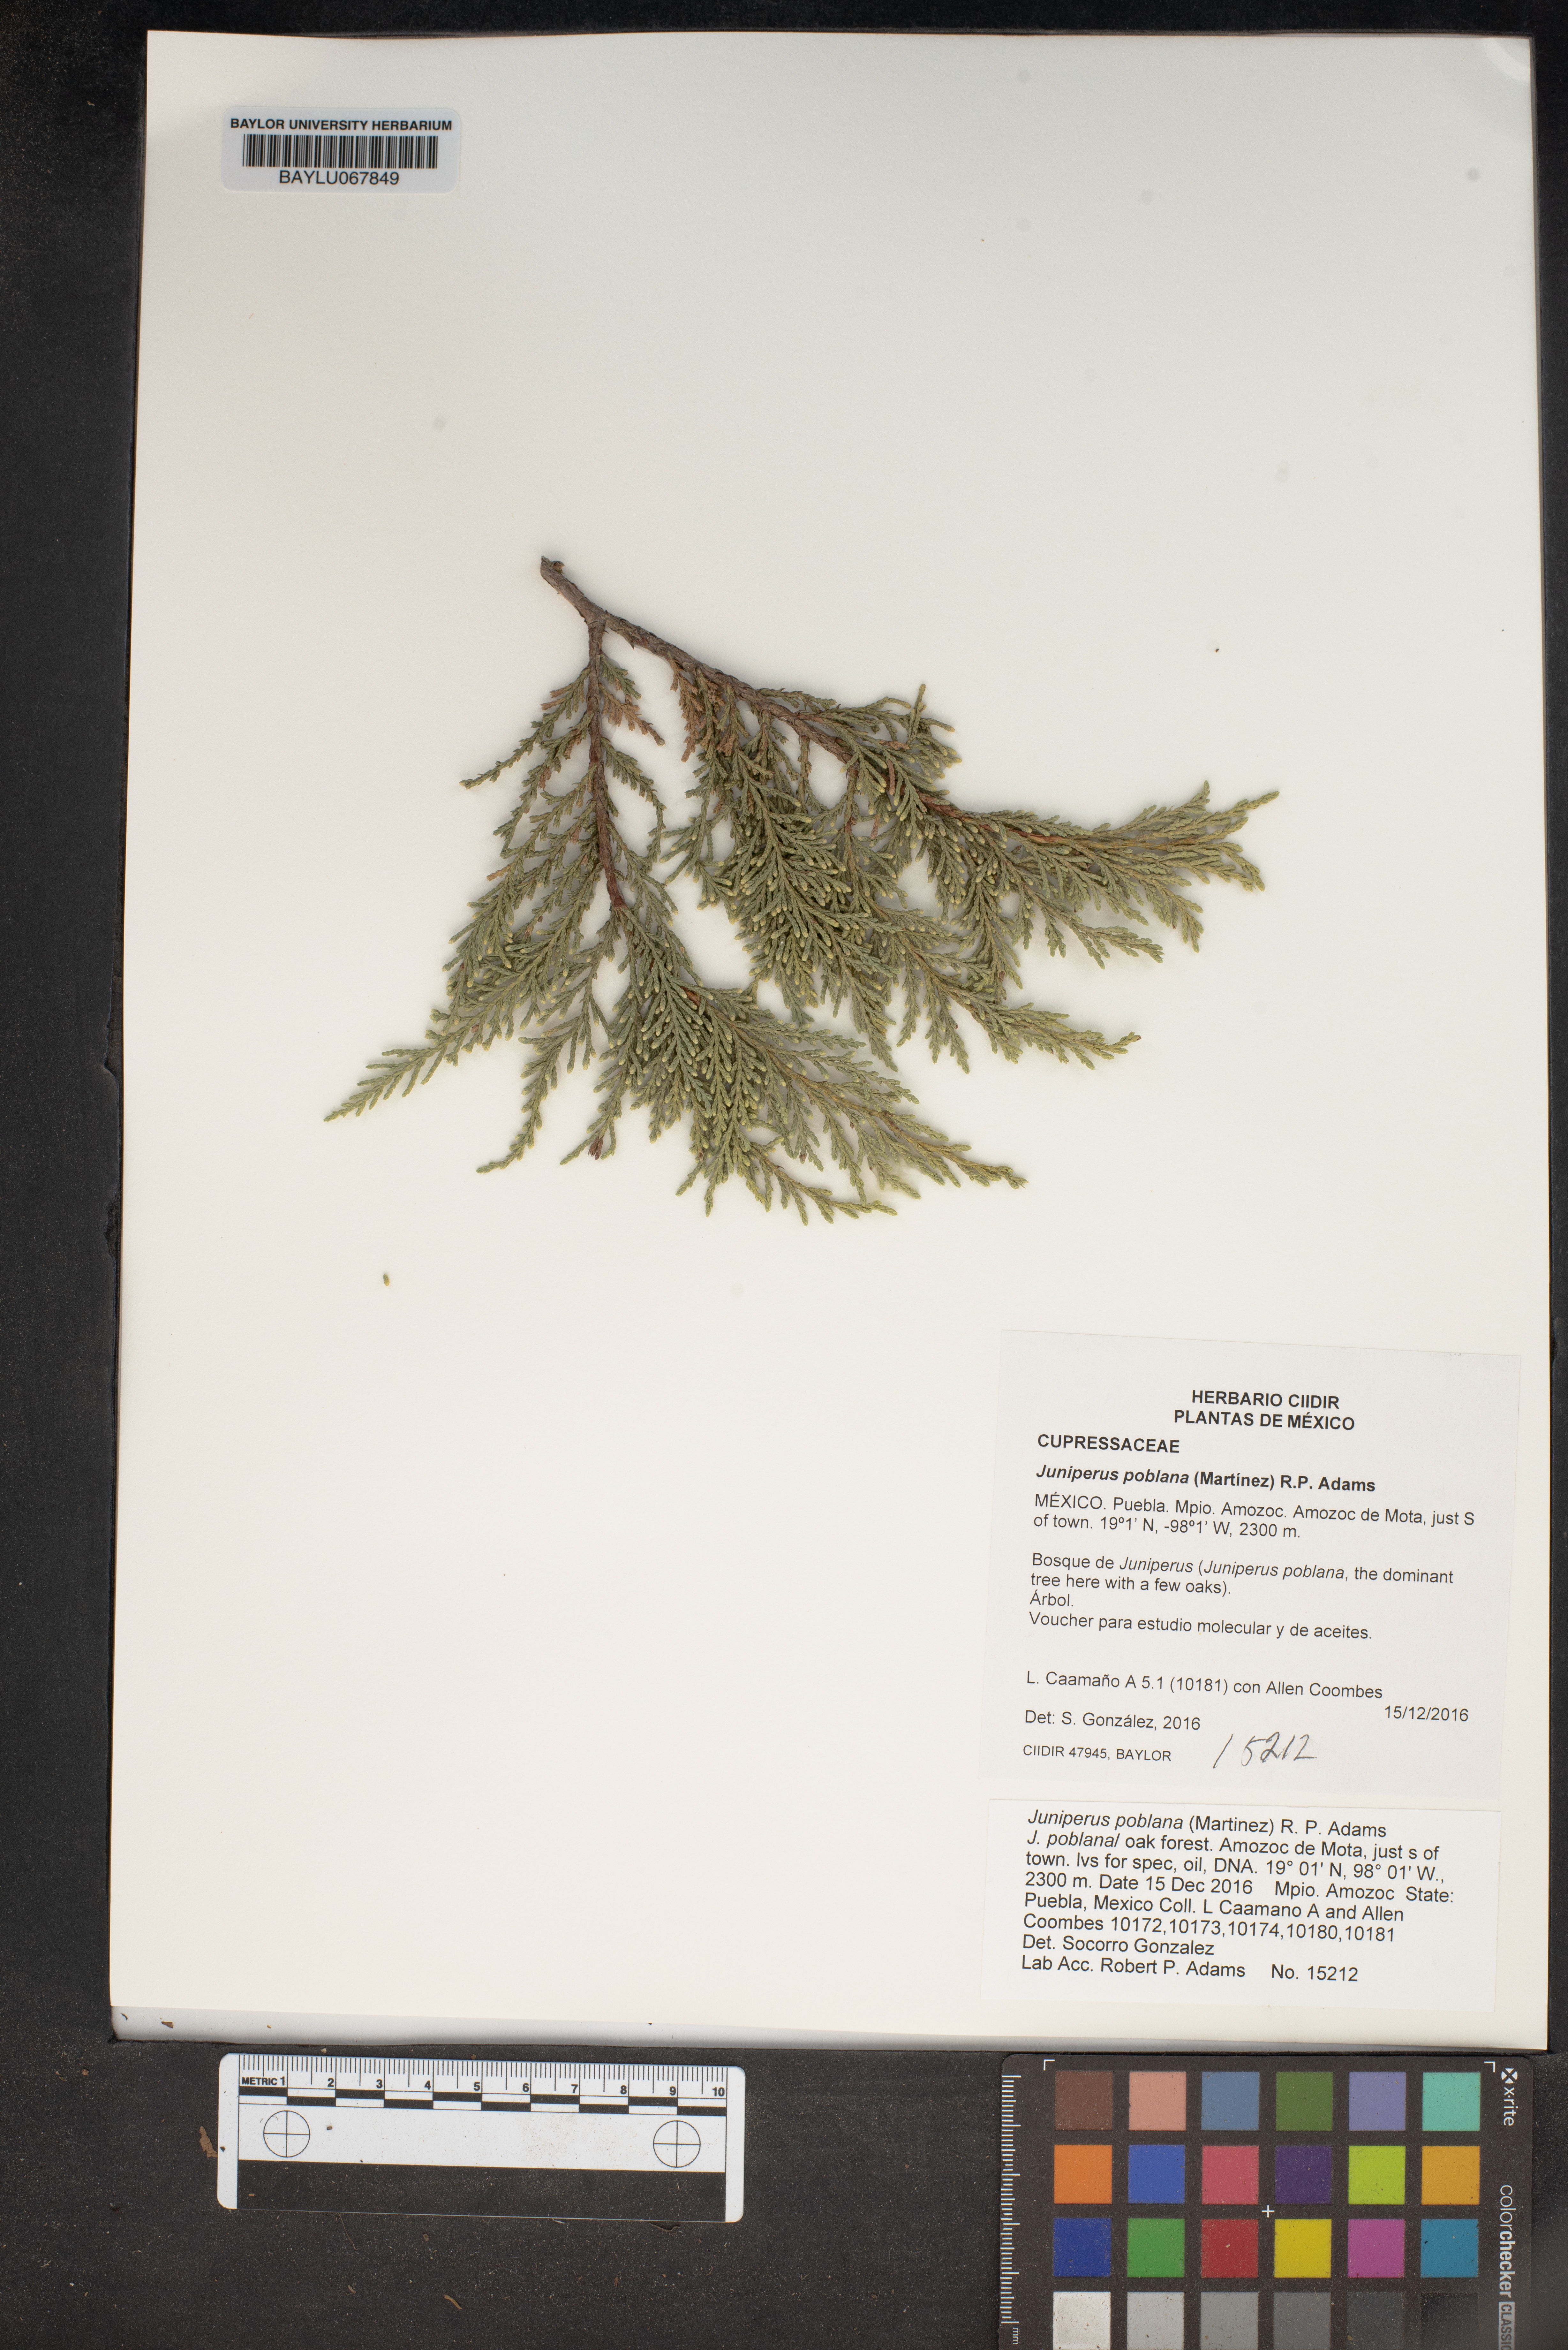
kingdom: Plantae
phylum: Tracheophyta
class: Pinopsida
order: Pinales
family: Cupressaceae
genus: Juniperus
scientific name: Juniperus flaccida
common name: Drooping juniper
